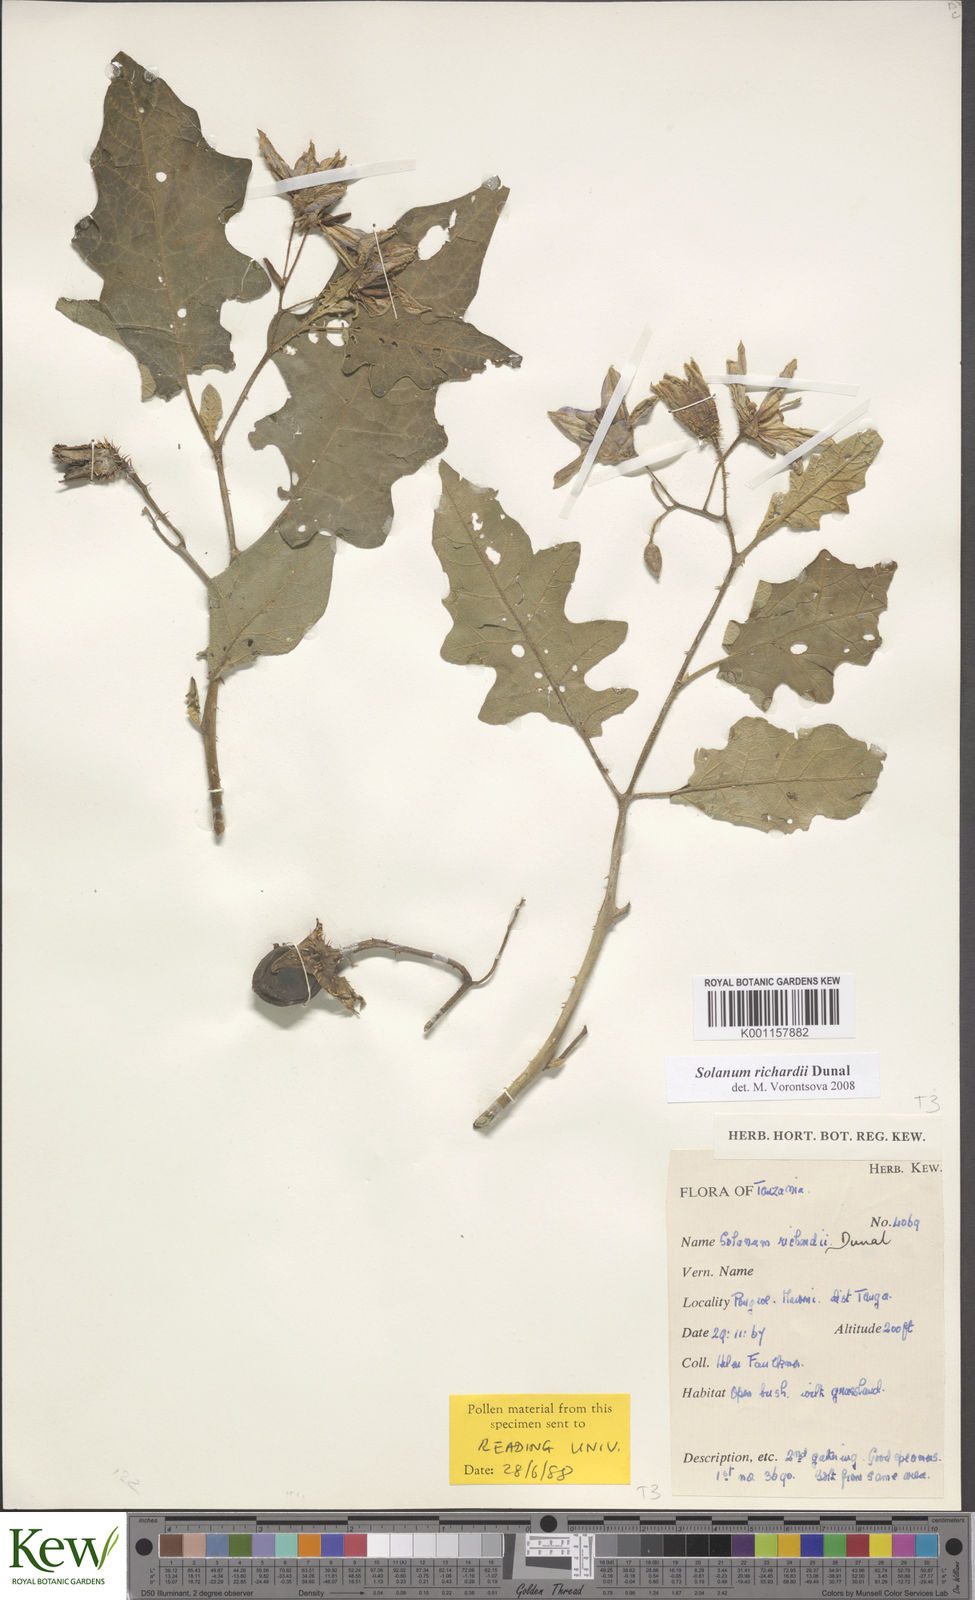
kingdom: Plantae
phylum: Tracheophyta
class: Magnoliopsida
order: Solanales
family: Solanaceae
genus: Solanum
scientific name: Solanum richardii
